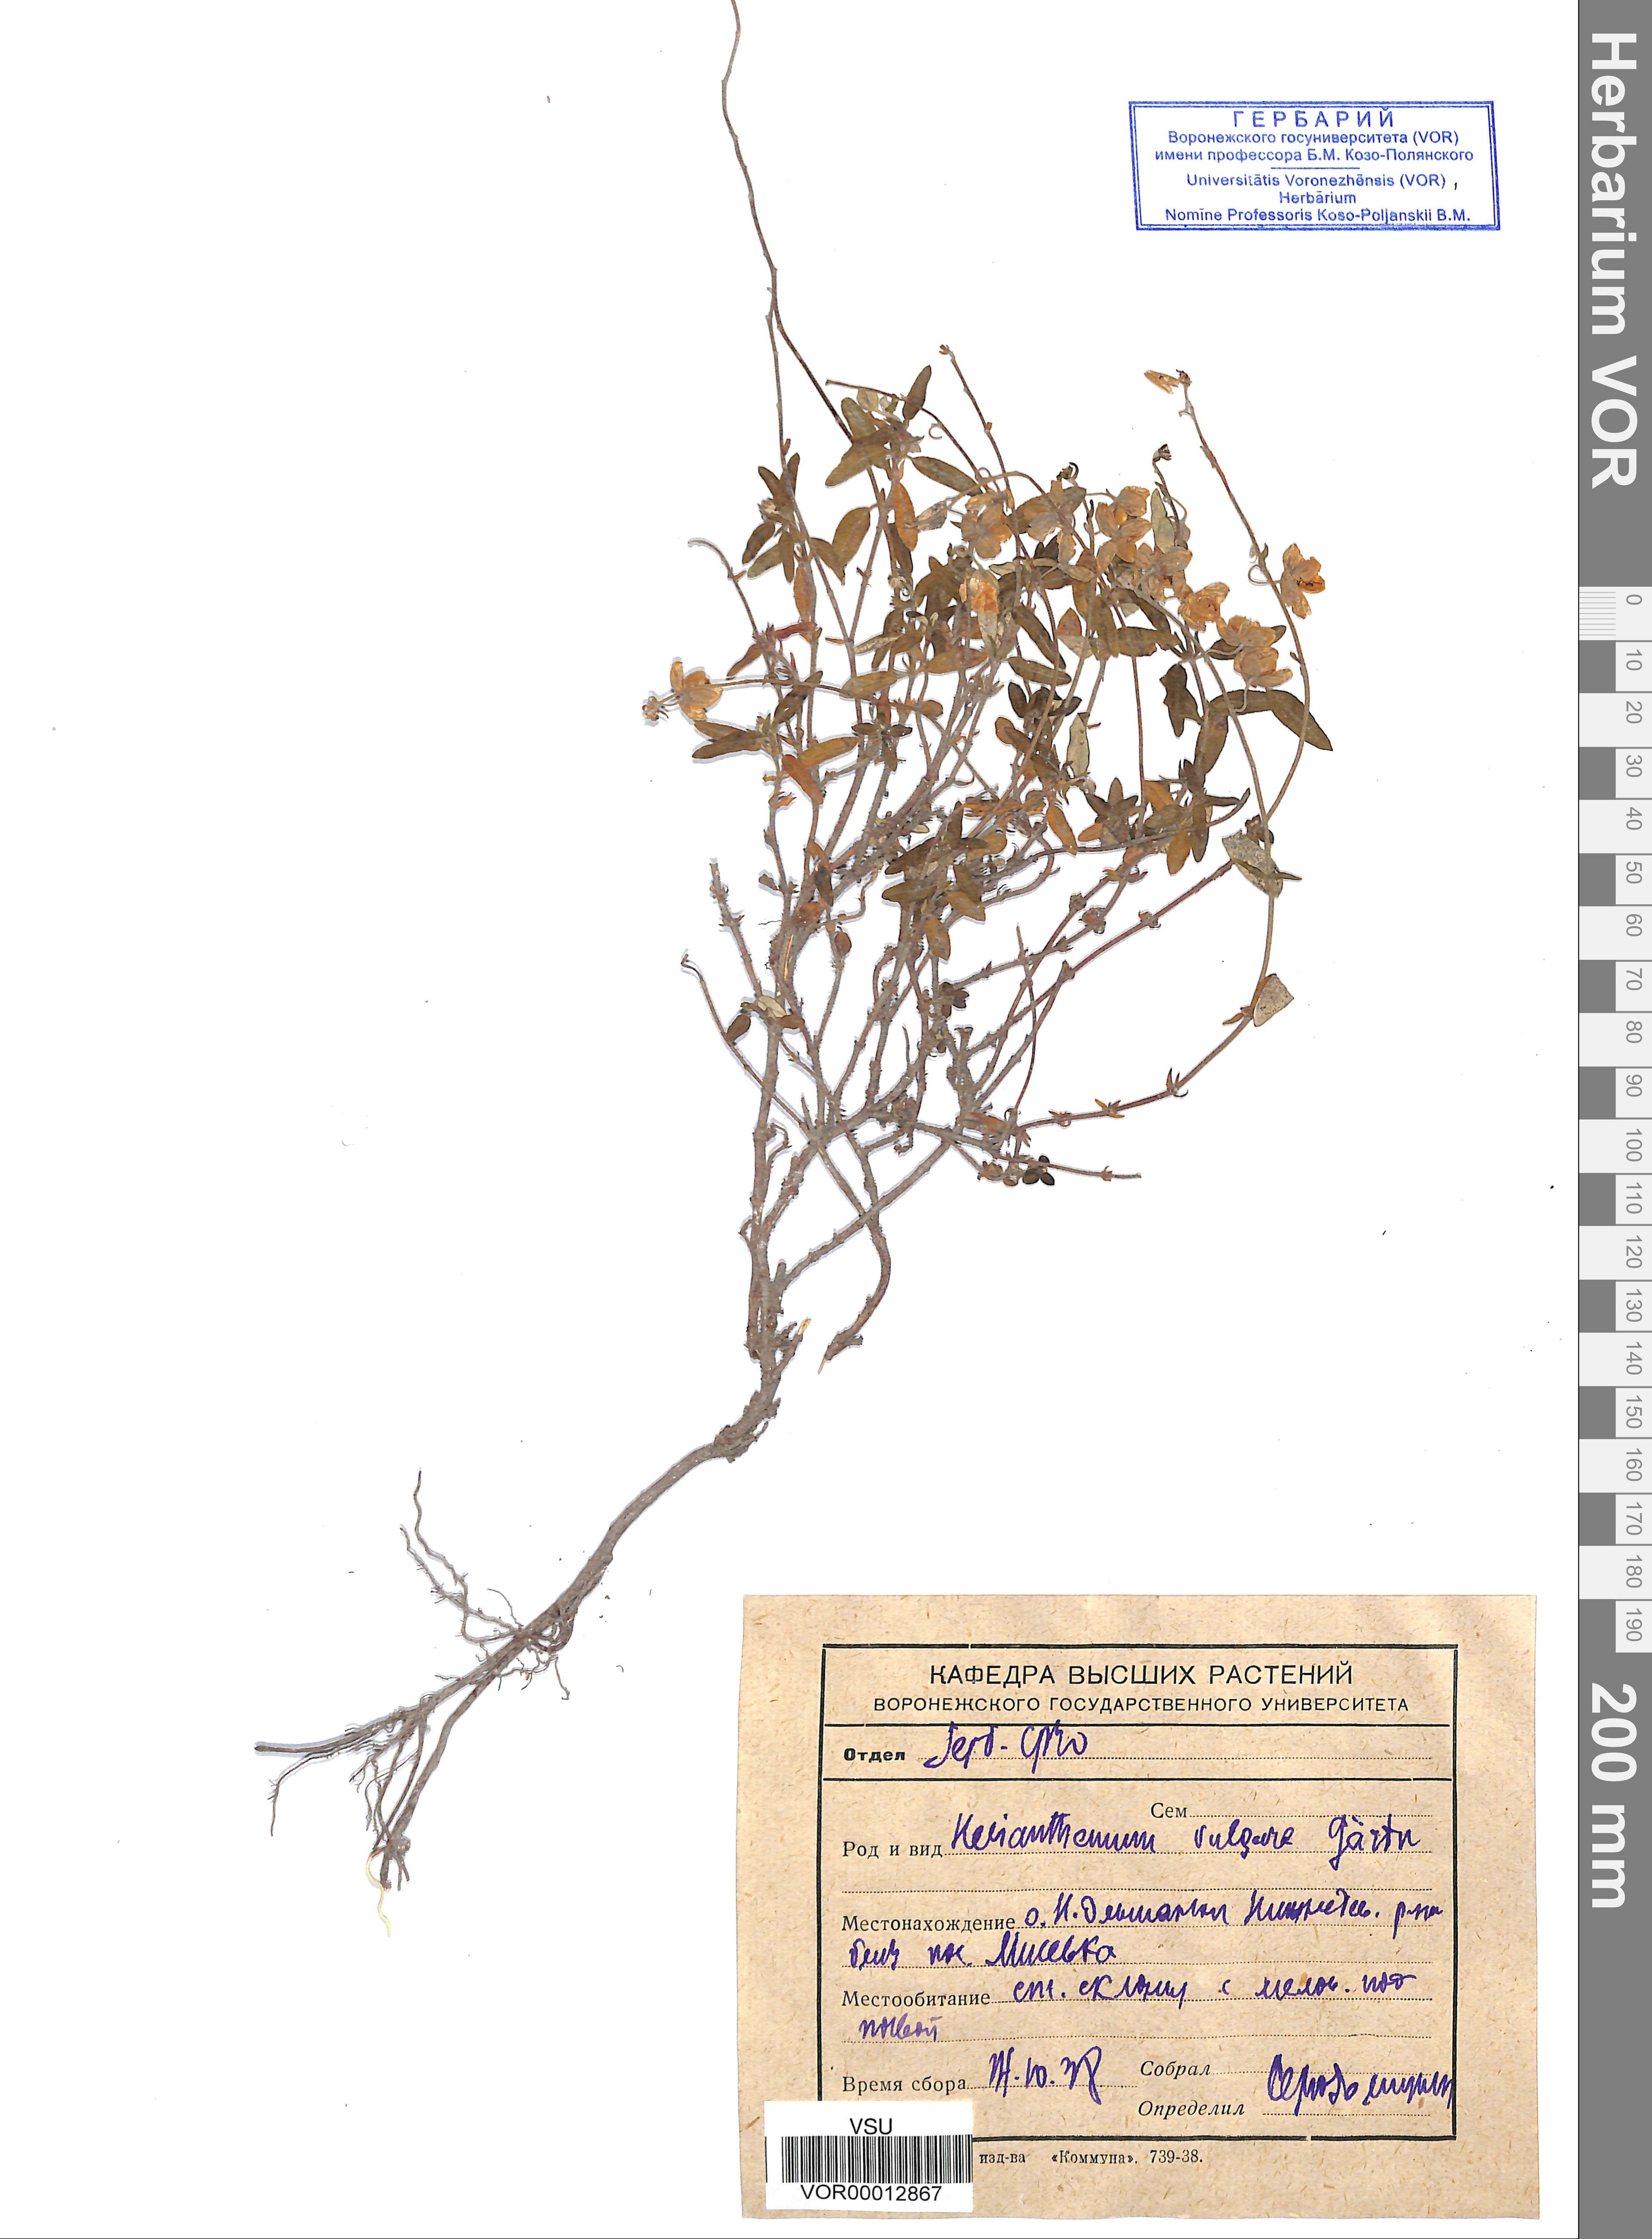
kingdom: Plantae
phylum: Tracheophyta
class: Magnoliopsida
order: Malvales
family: Cistaceae
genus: Helianthemum
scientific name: Helianthemum nummularium
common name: Common rock-rose
